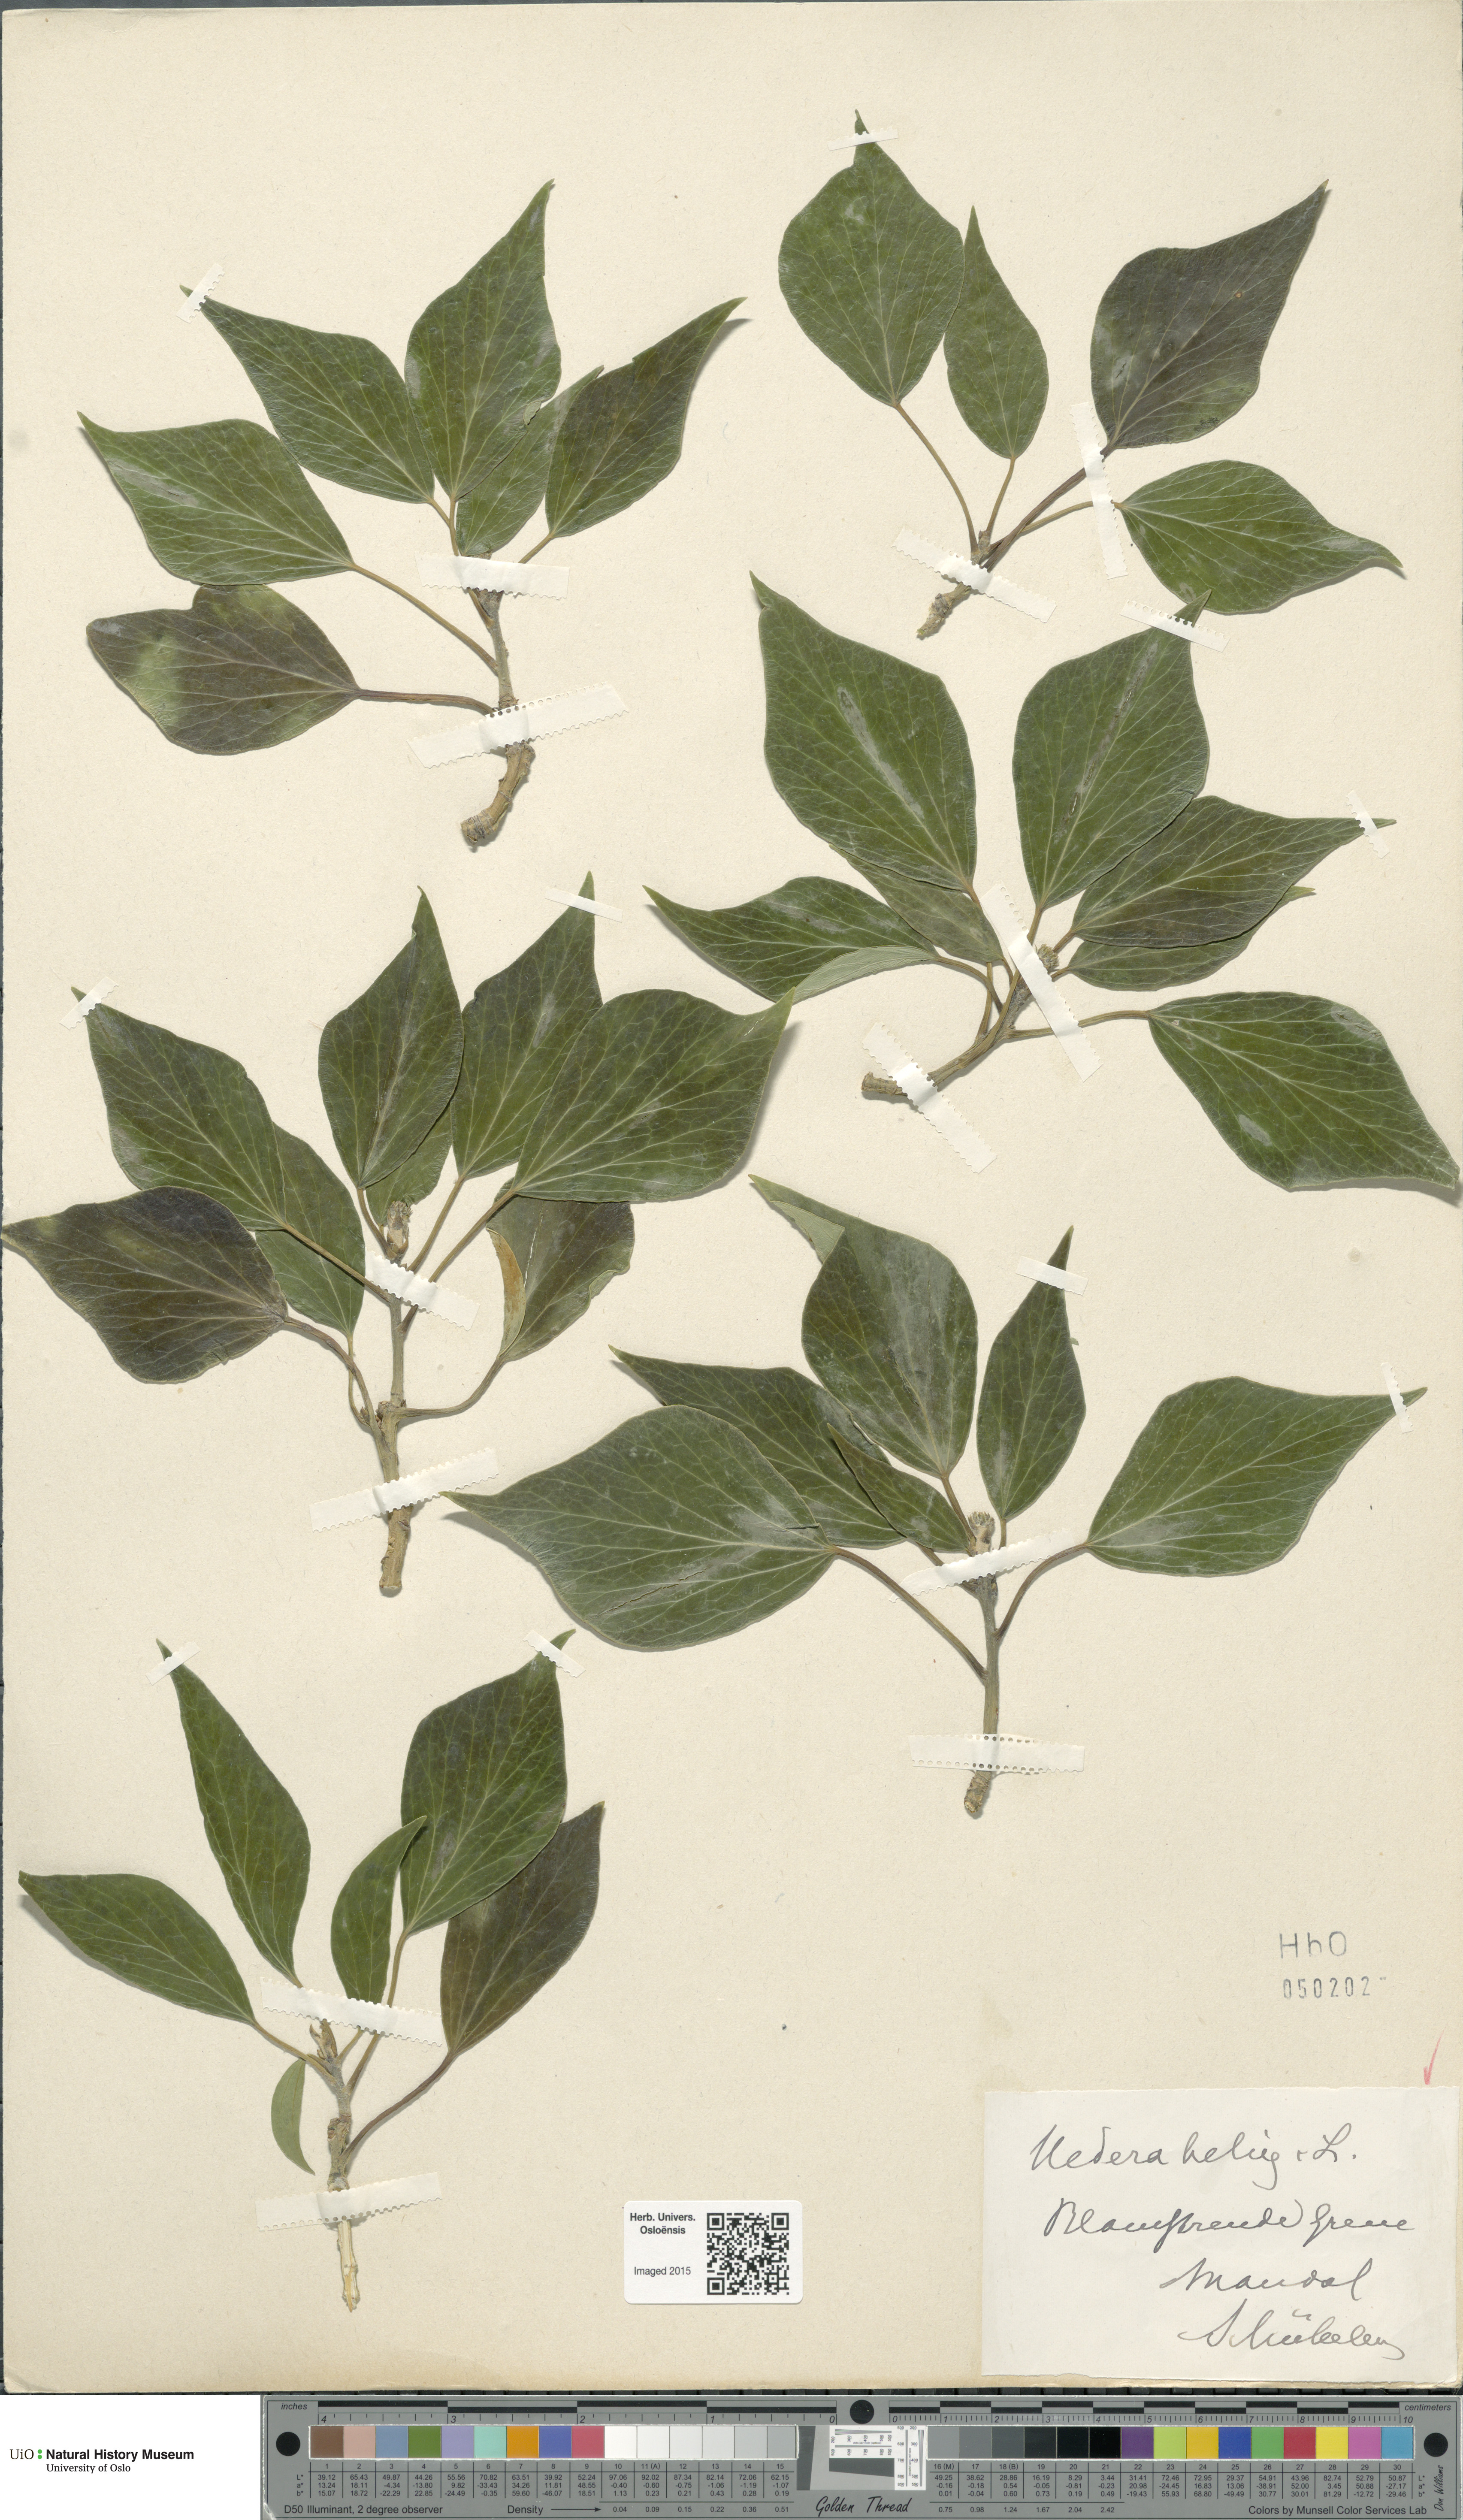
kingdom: Plantae
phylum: Tracheophyta
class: Magnoliopsida
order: Apiales
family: Araliaceae
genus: Hedera
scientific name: Hedera helix
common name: Ivy
